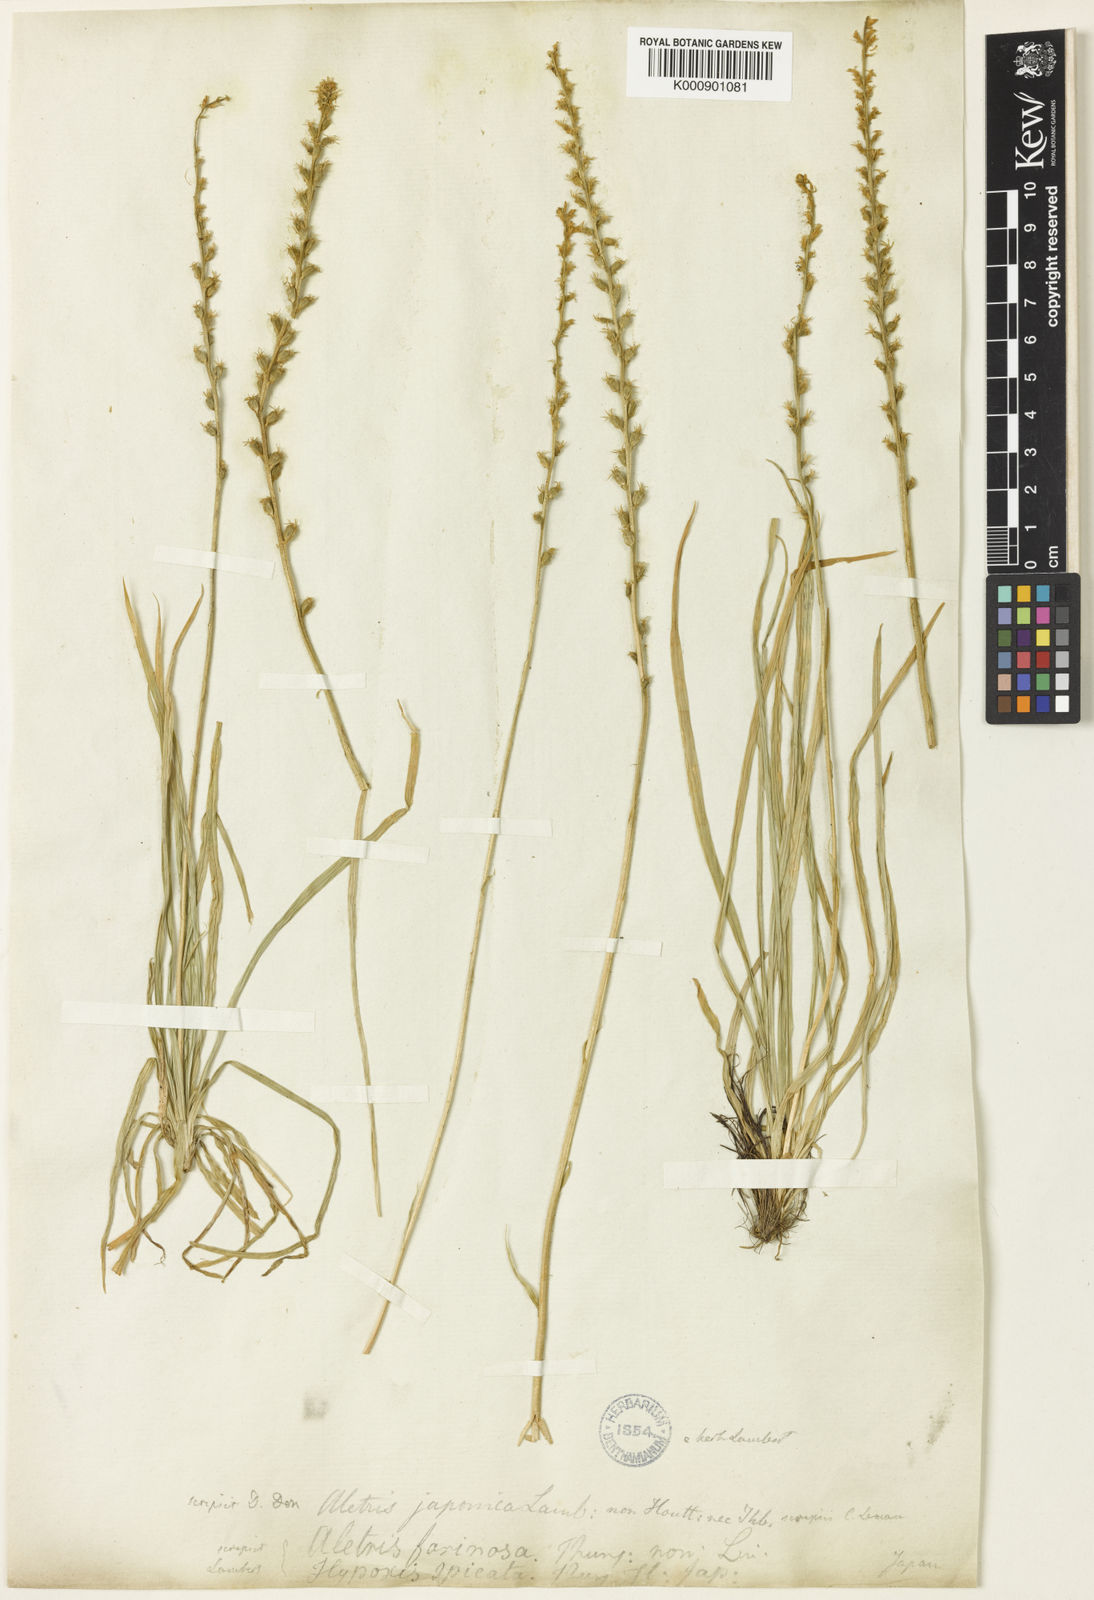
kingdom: Plantae
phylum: Tracheophyta
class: Liliopsida
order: Dioscoreales
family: Nartheciaceae
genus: Aletris
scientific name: Aletris spicata
